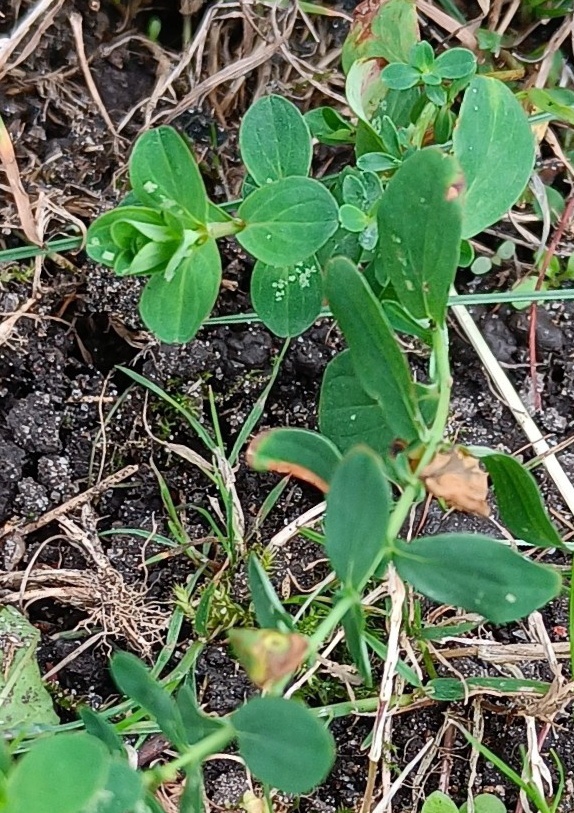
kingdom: Plantae
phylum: Tracheophyta
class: Magnoliopsida
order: Malpighiales
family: Hypericaceae
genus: Hypericum
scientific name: Hypericum
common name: Perikonslægten
